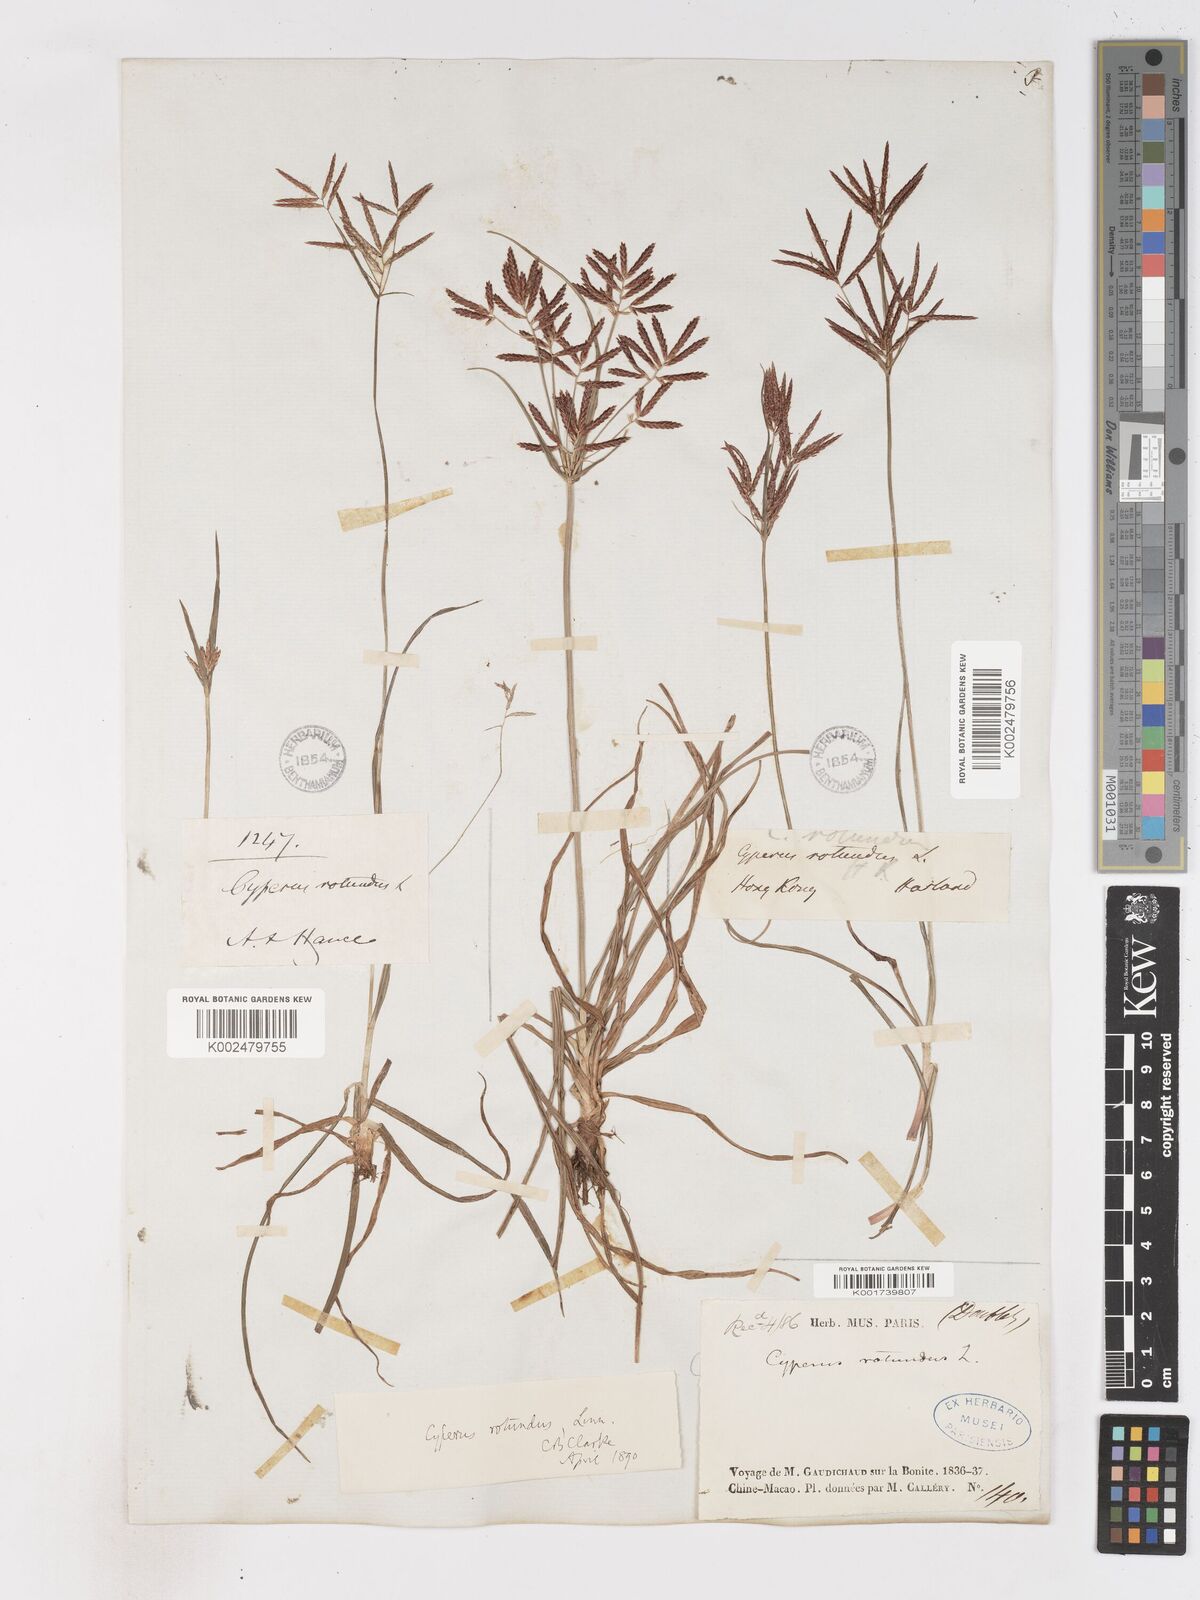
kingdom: Plantae
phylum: Tracheophyta
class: Liliopsida
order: Poales
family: Cyperaceae
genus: Cyperus
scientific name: Cyperus rotundus
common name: Nutgrass
